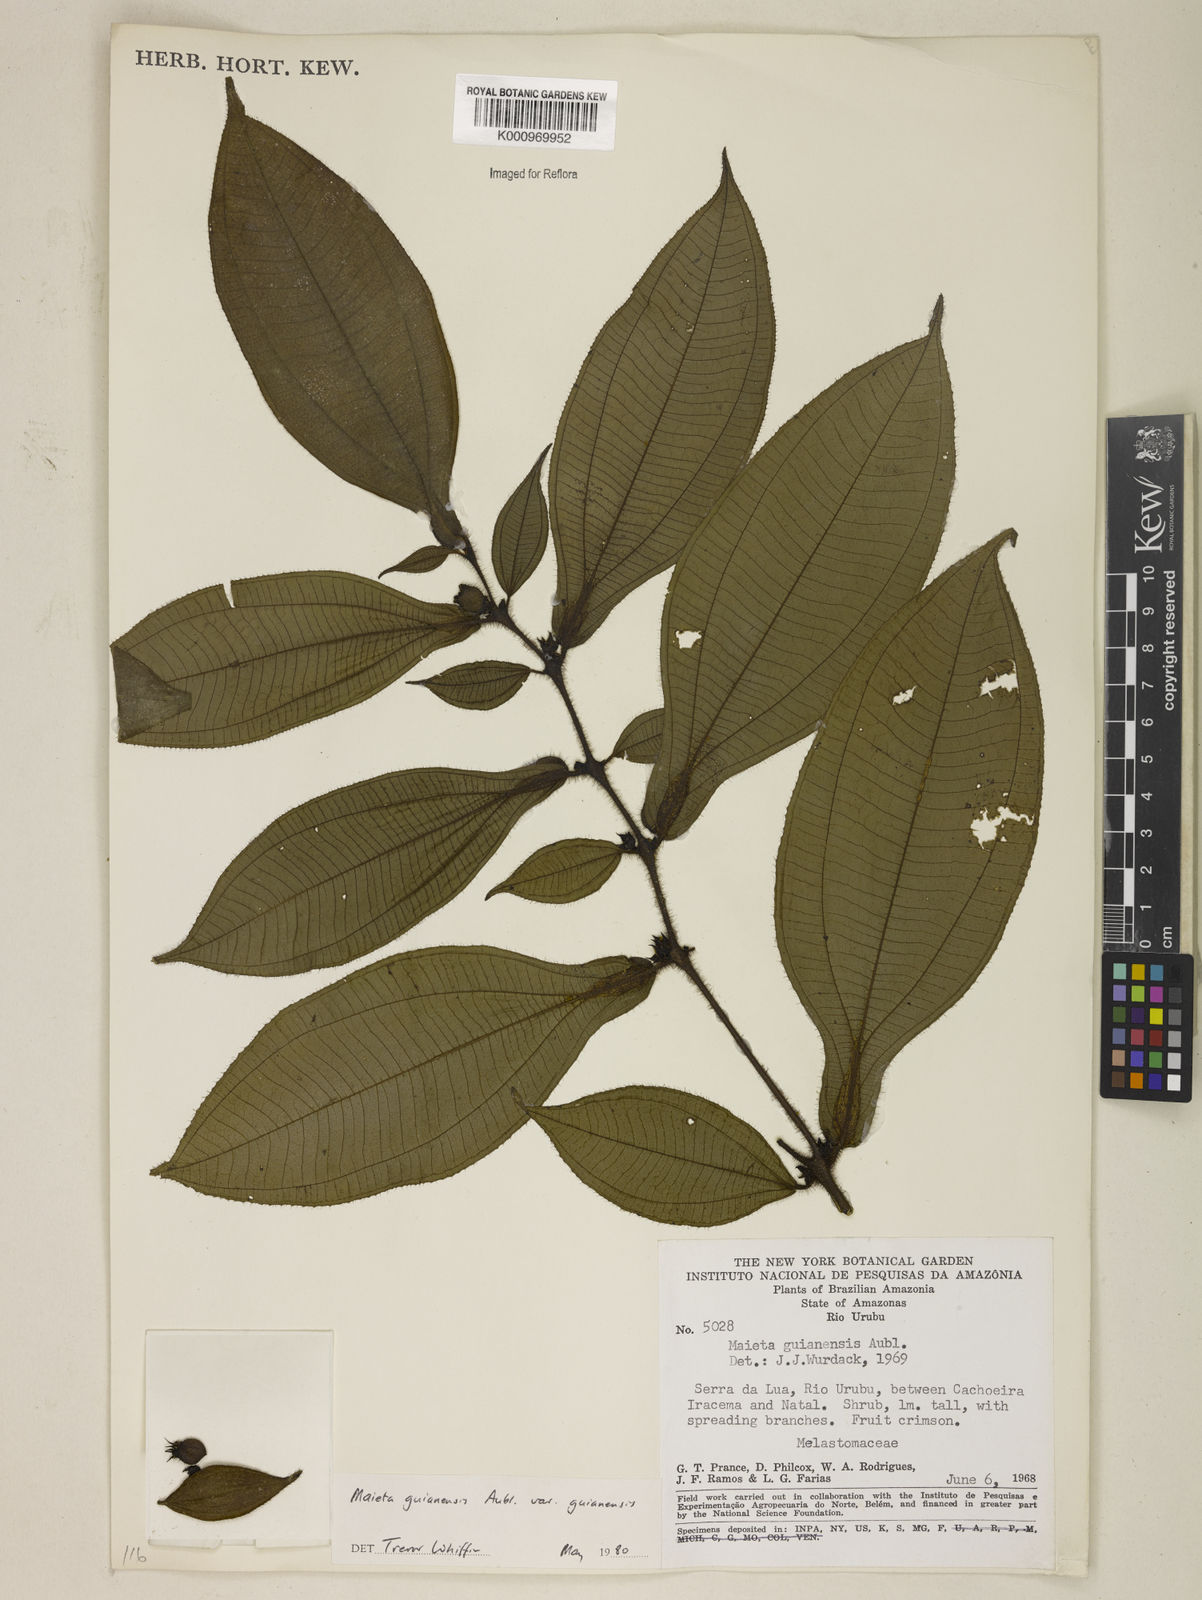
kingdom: Plantae
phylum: Tracheophyta
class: Magnoliopsida
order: Myrtales
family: Melastomataceae
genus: Miconia
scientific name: Miconia mayeta
